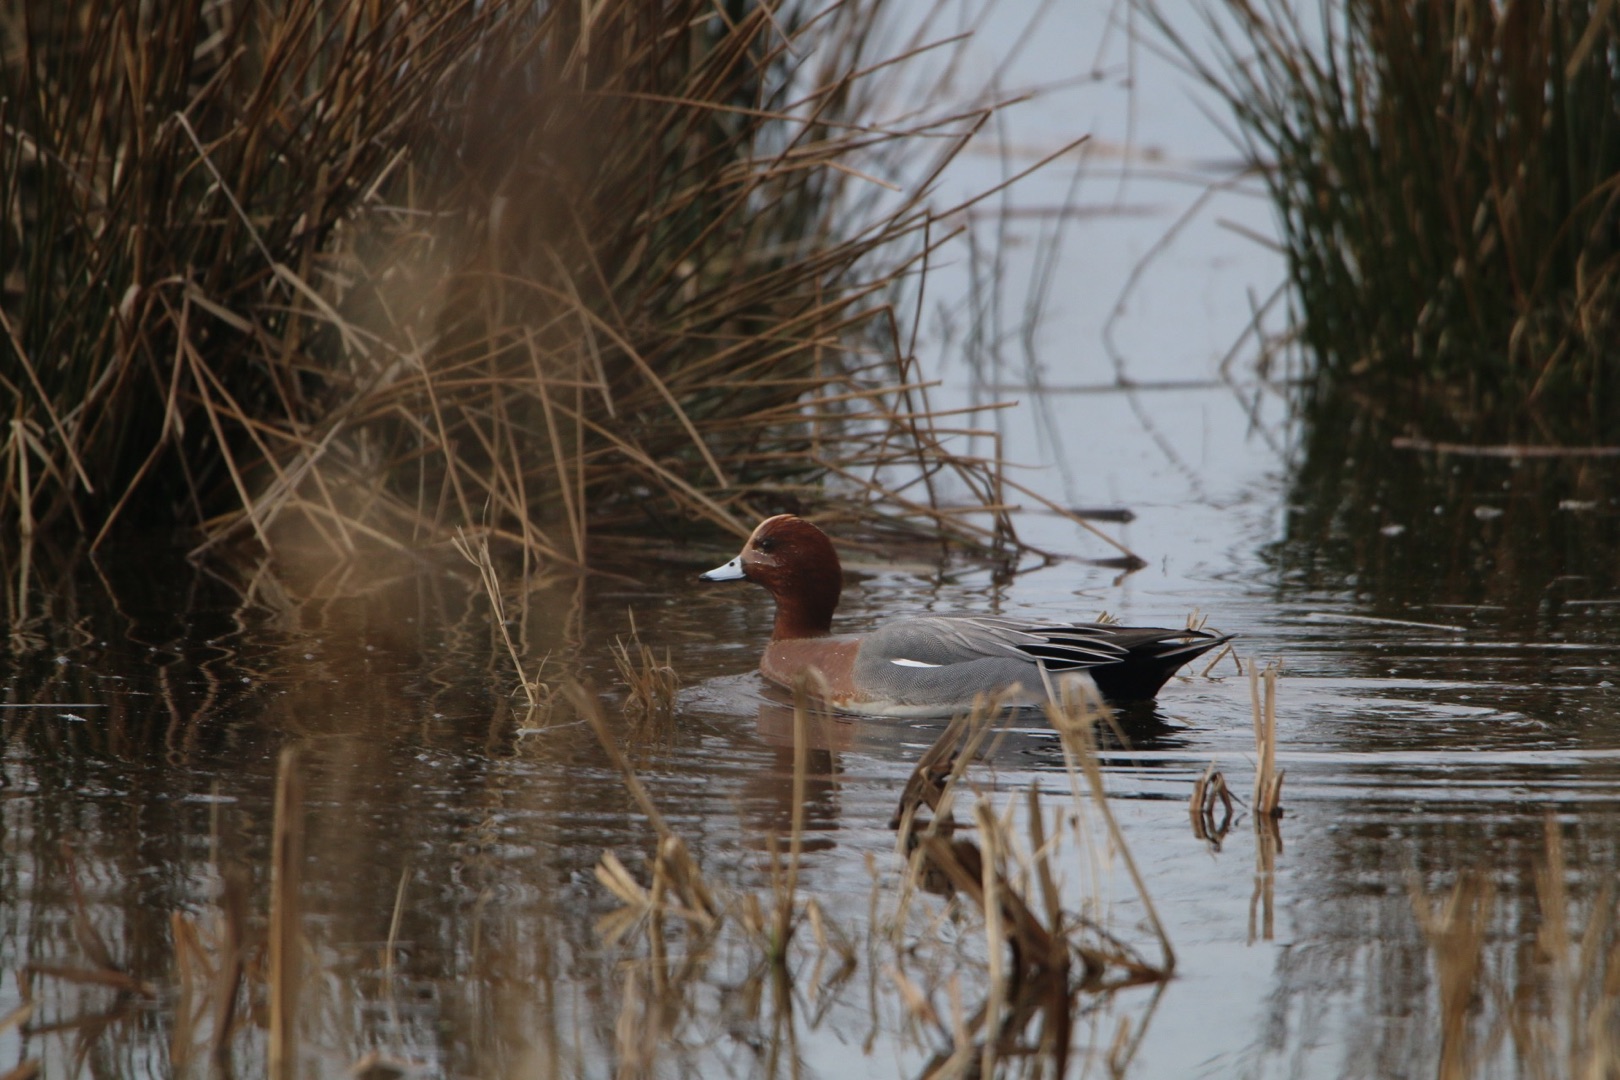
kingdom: Animalia
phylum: Chordata
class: Aves
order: Anseriformes
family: Anatidae
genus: Mareca
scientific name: Mareca penelope
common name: Pibeand
